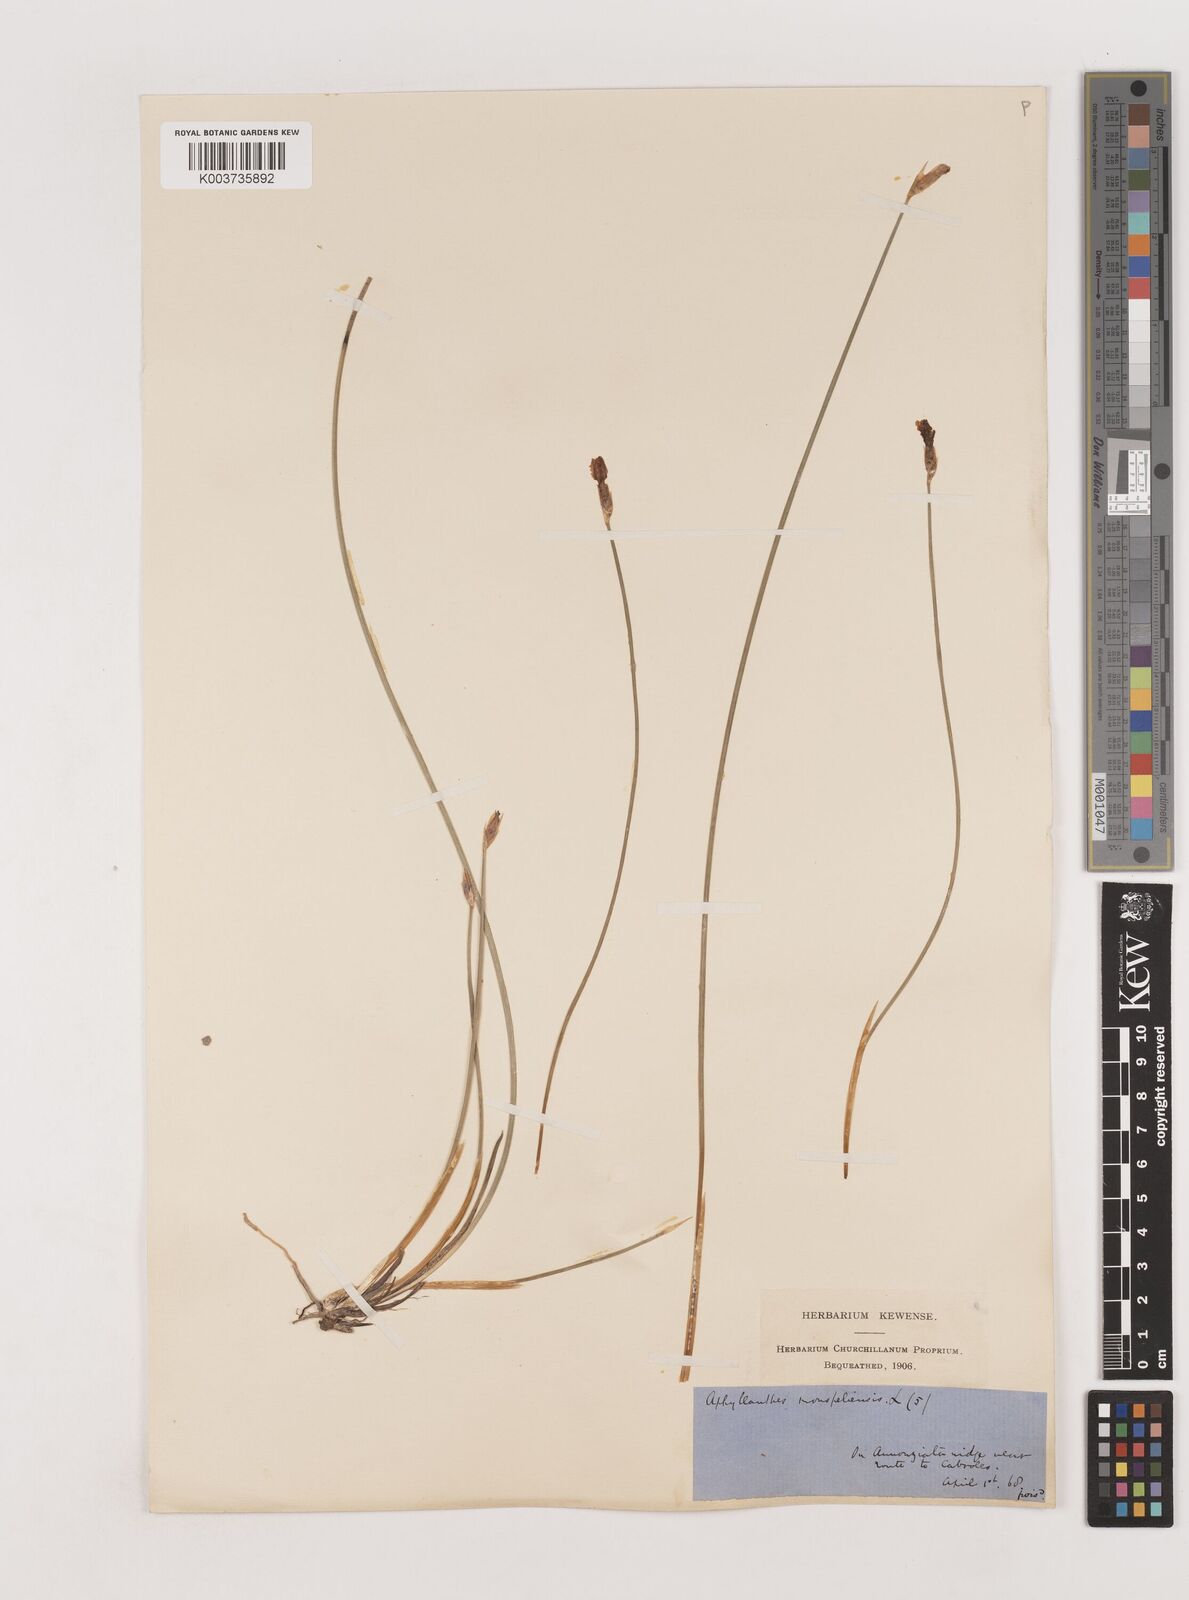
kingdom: Plantae
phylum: Tracheophyta
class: Liliopsida
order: Asparagales
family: Asparagaceae
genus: Aphyllanthes
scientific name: Aphyllanthes monspeliensis
